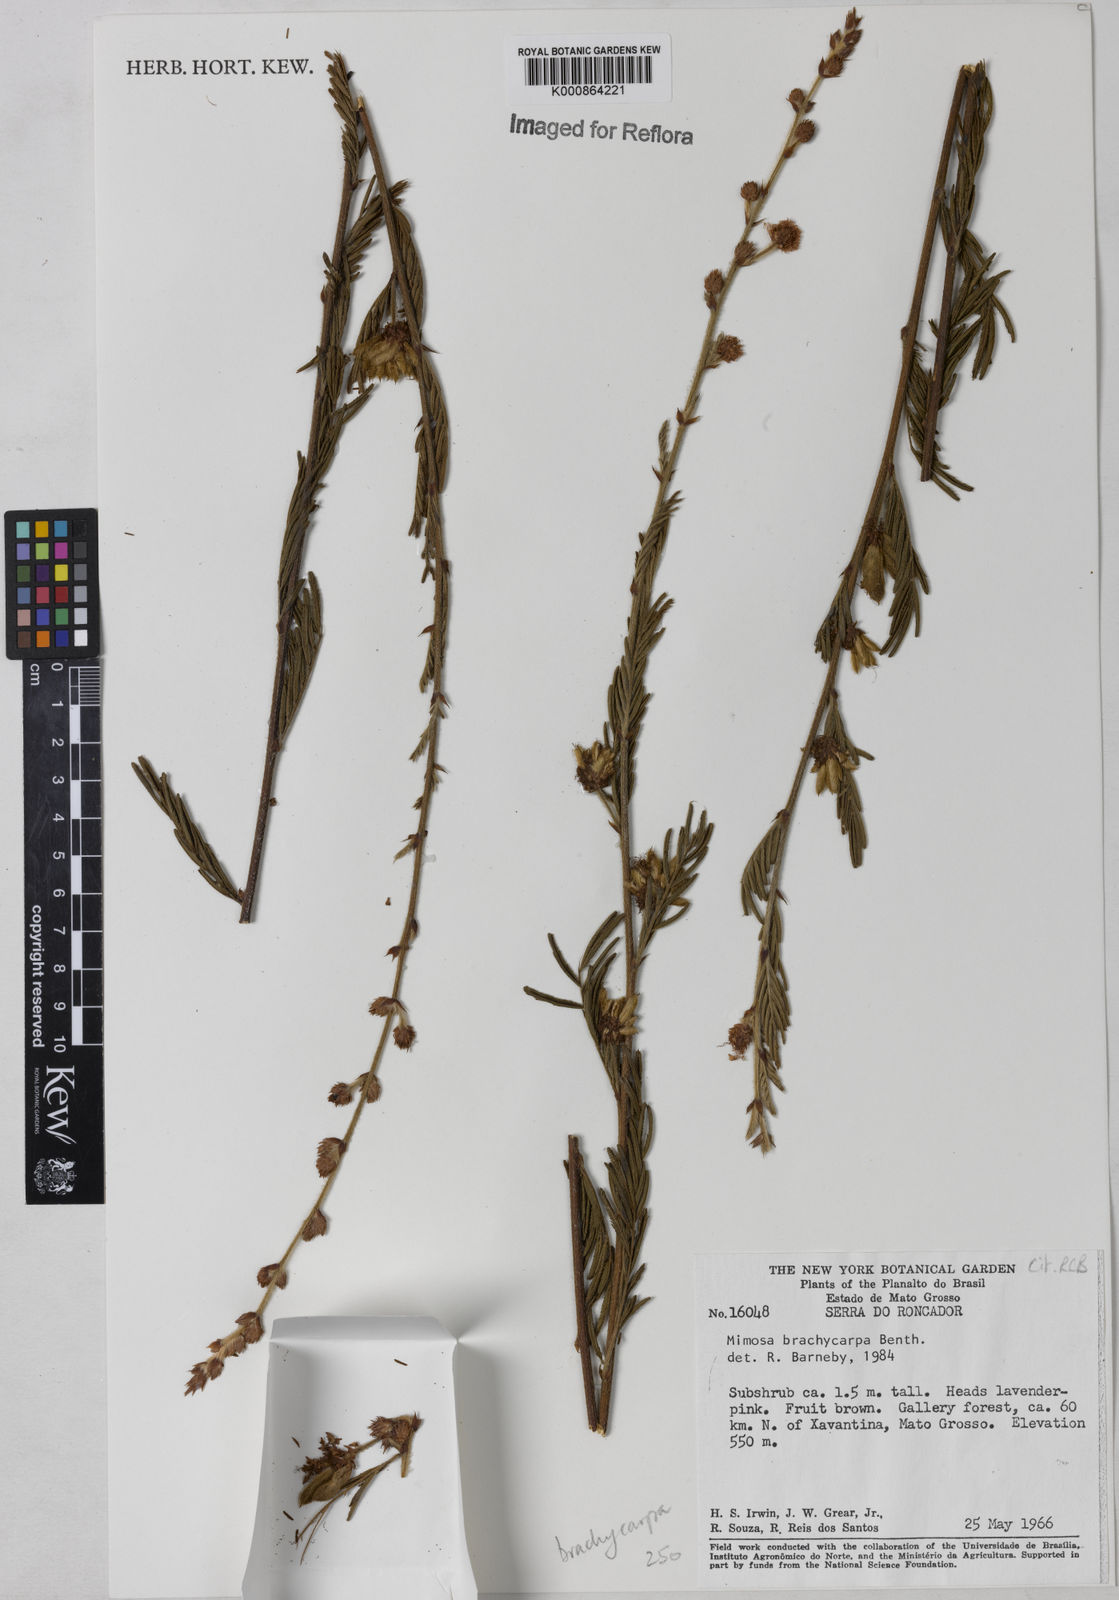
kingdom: Plantae
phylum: Tracheophyta
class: Magnoliopsida
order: Fabales
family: Fabaceae
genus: Mimosa
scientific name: Mimosa brachycarpa
